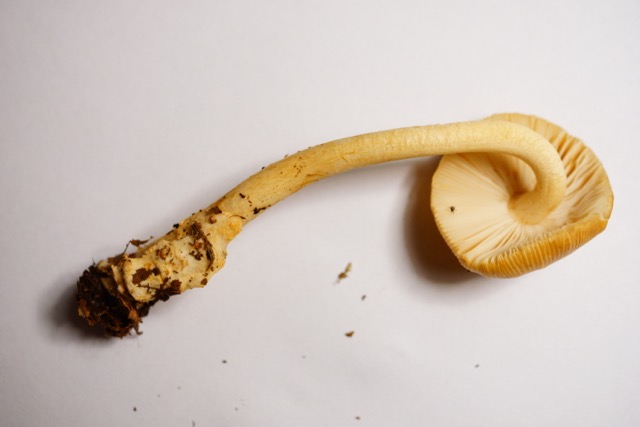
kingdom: Fungi
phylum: Basidiomycota
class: Agaricomycetes
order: Agaricales
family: Amanitaceae
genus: Amanita
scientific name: Amanita fulva
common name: brun kam-fluesvamp
